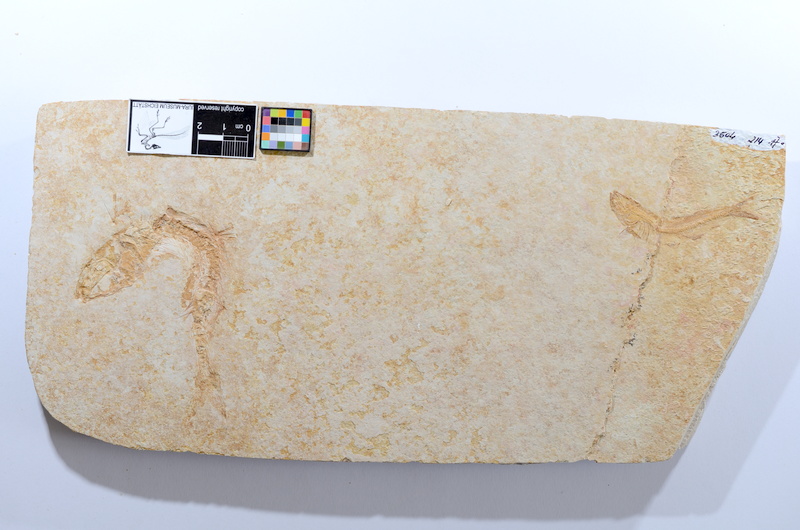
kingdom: Animalia
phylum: Chordata
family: Allothrissopidae
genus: Allothrissops
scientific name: Allothrissops mesogaster
